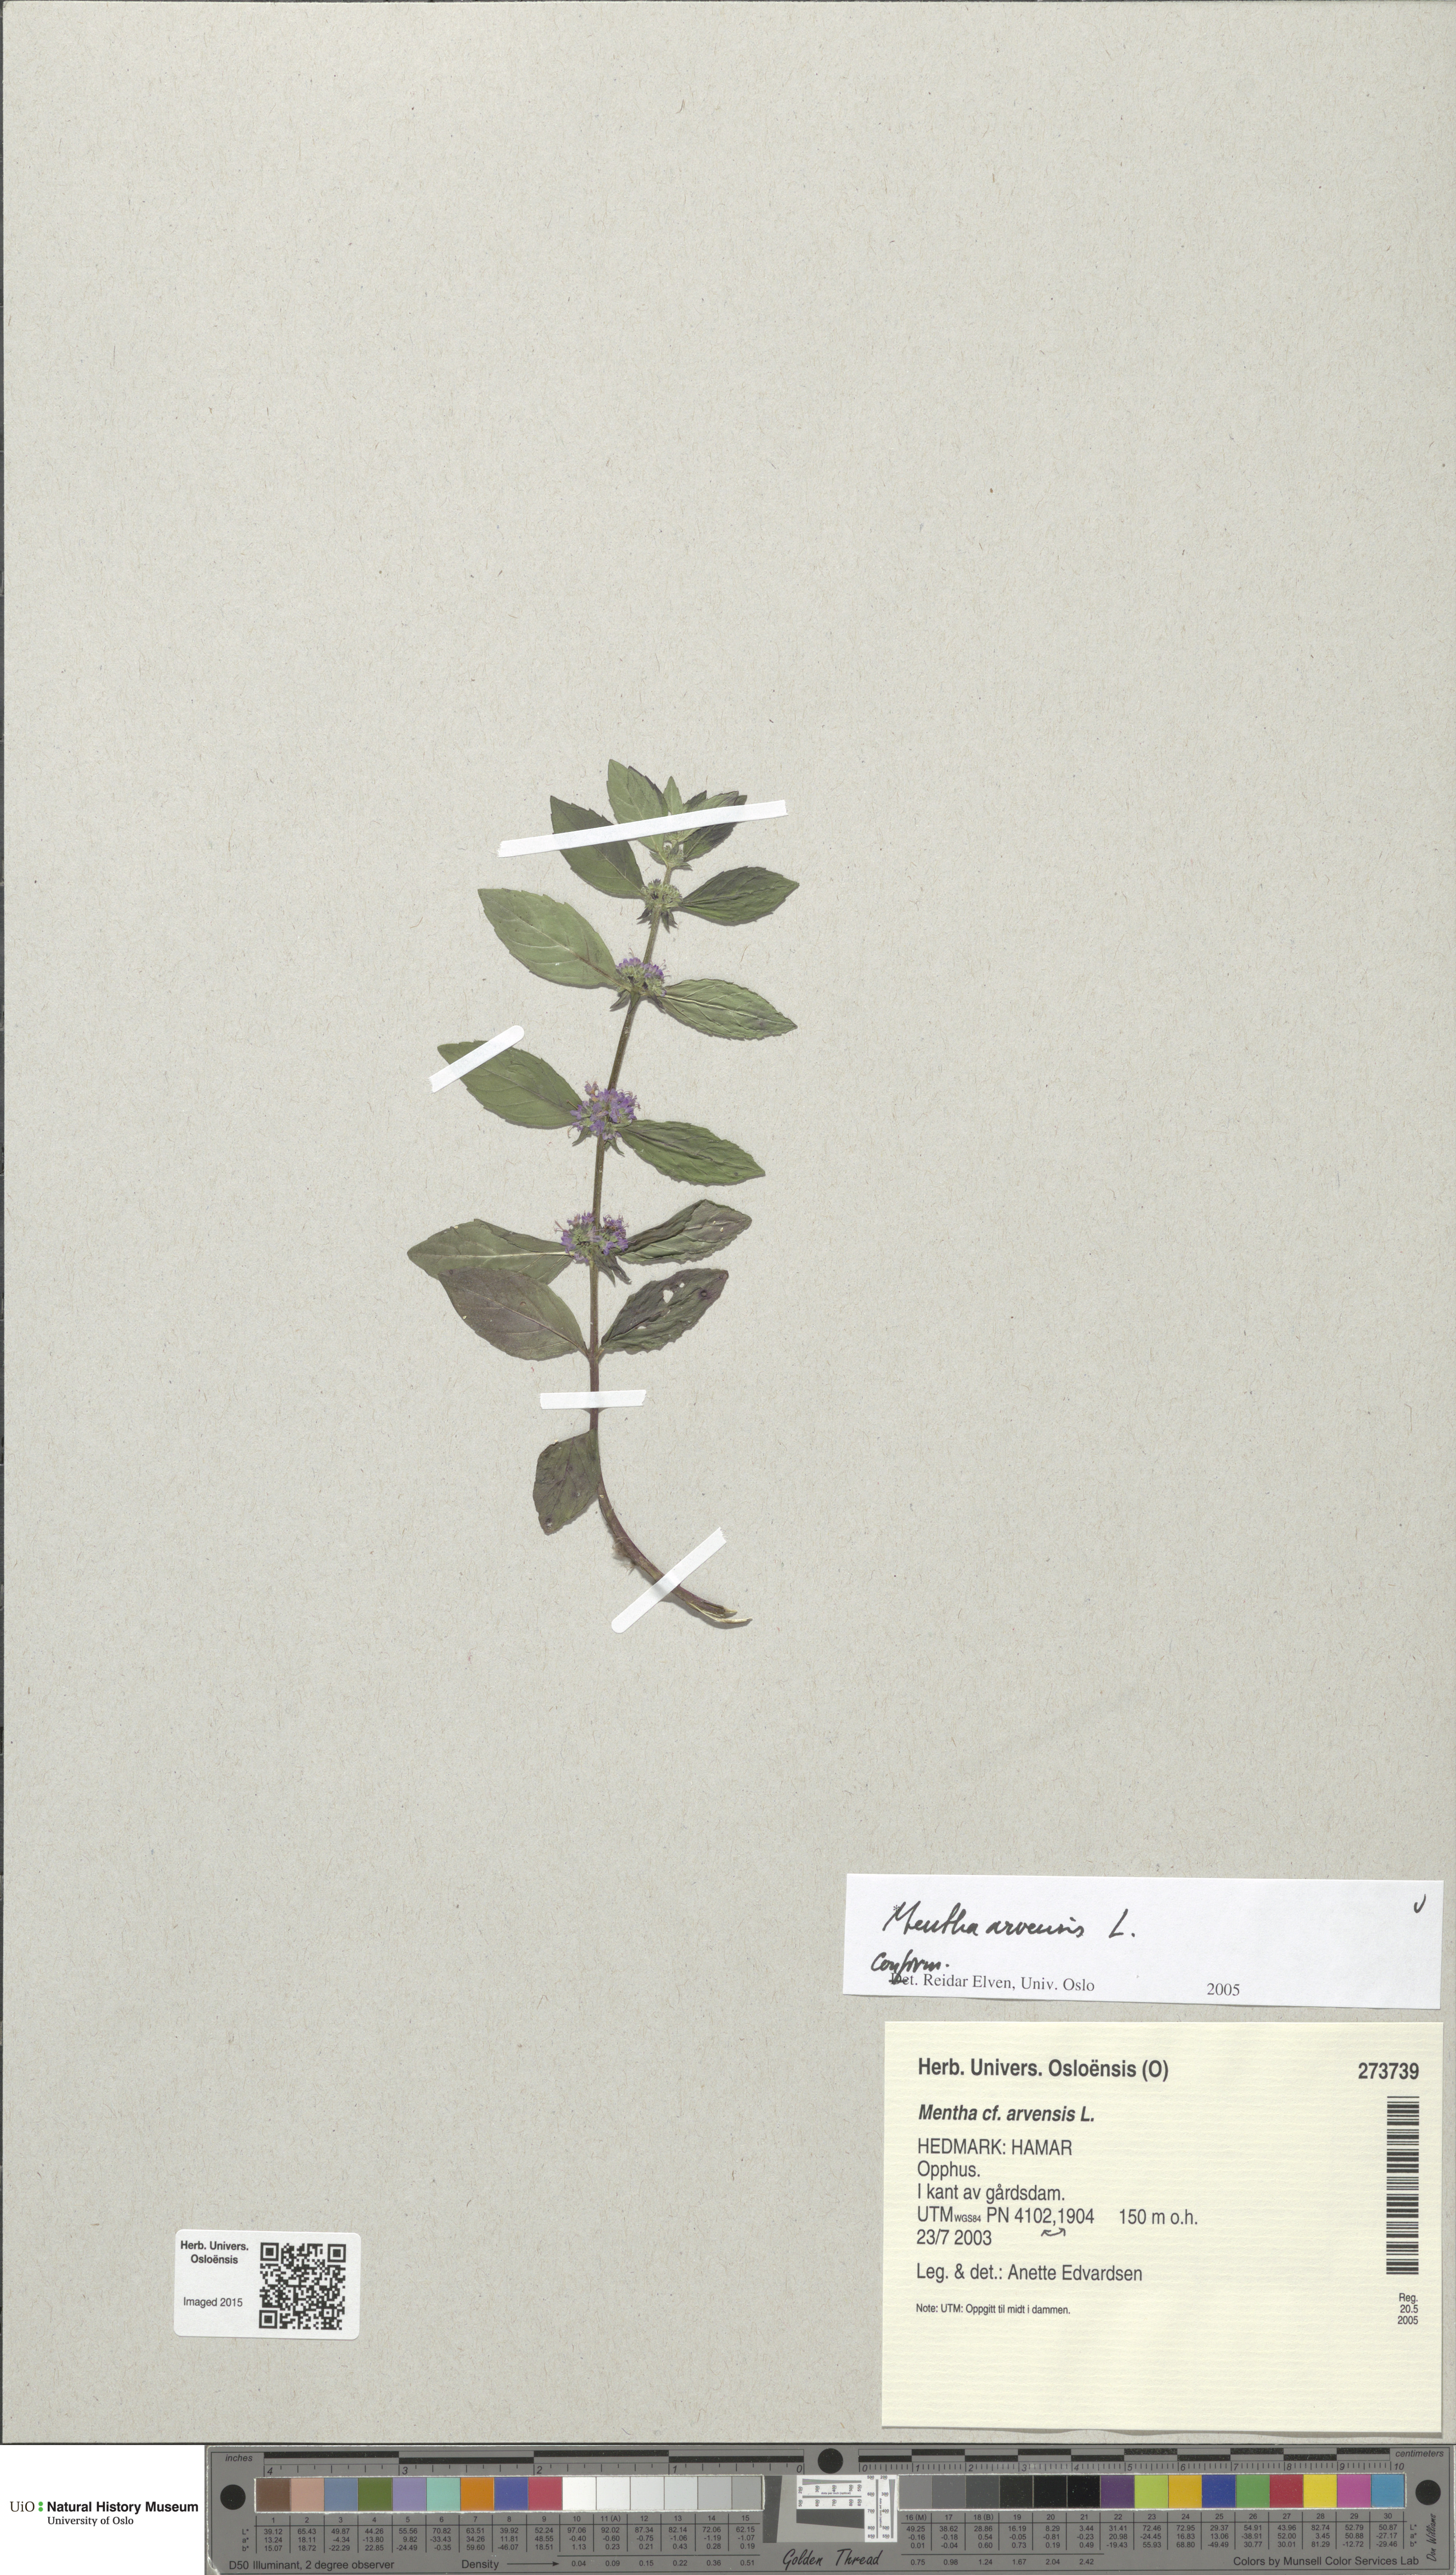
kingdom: Plantae
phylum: Tracheophyta
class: Magnoliopsida
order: Lamiales
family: Lamiaceae
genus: Mentha
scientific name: Mentha arvensis
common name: Corn mint
